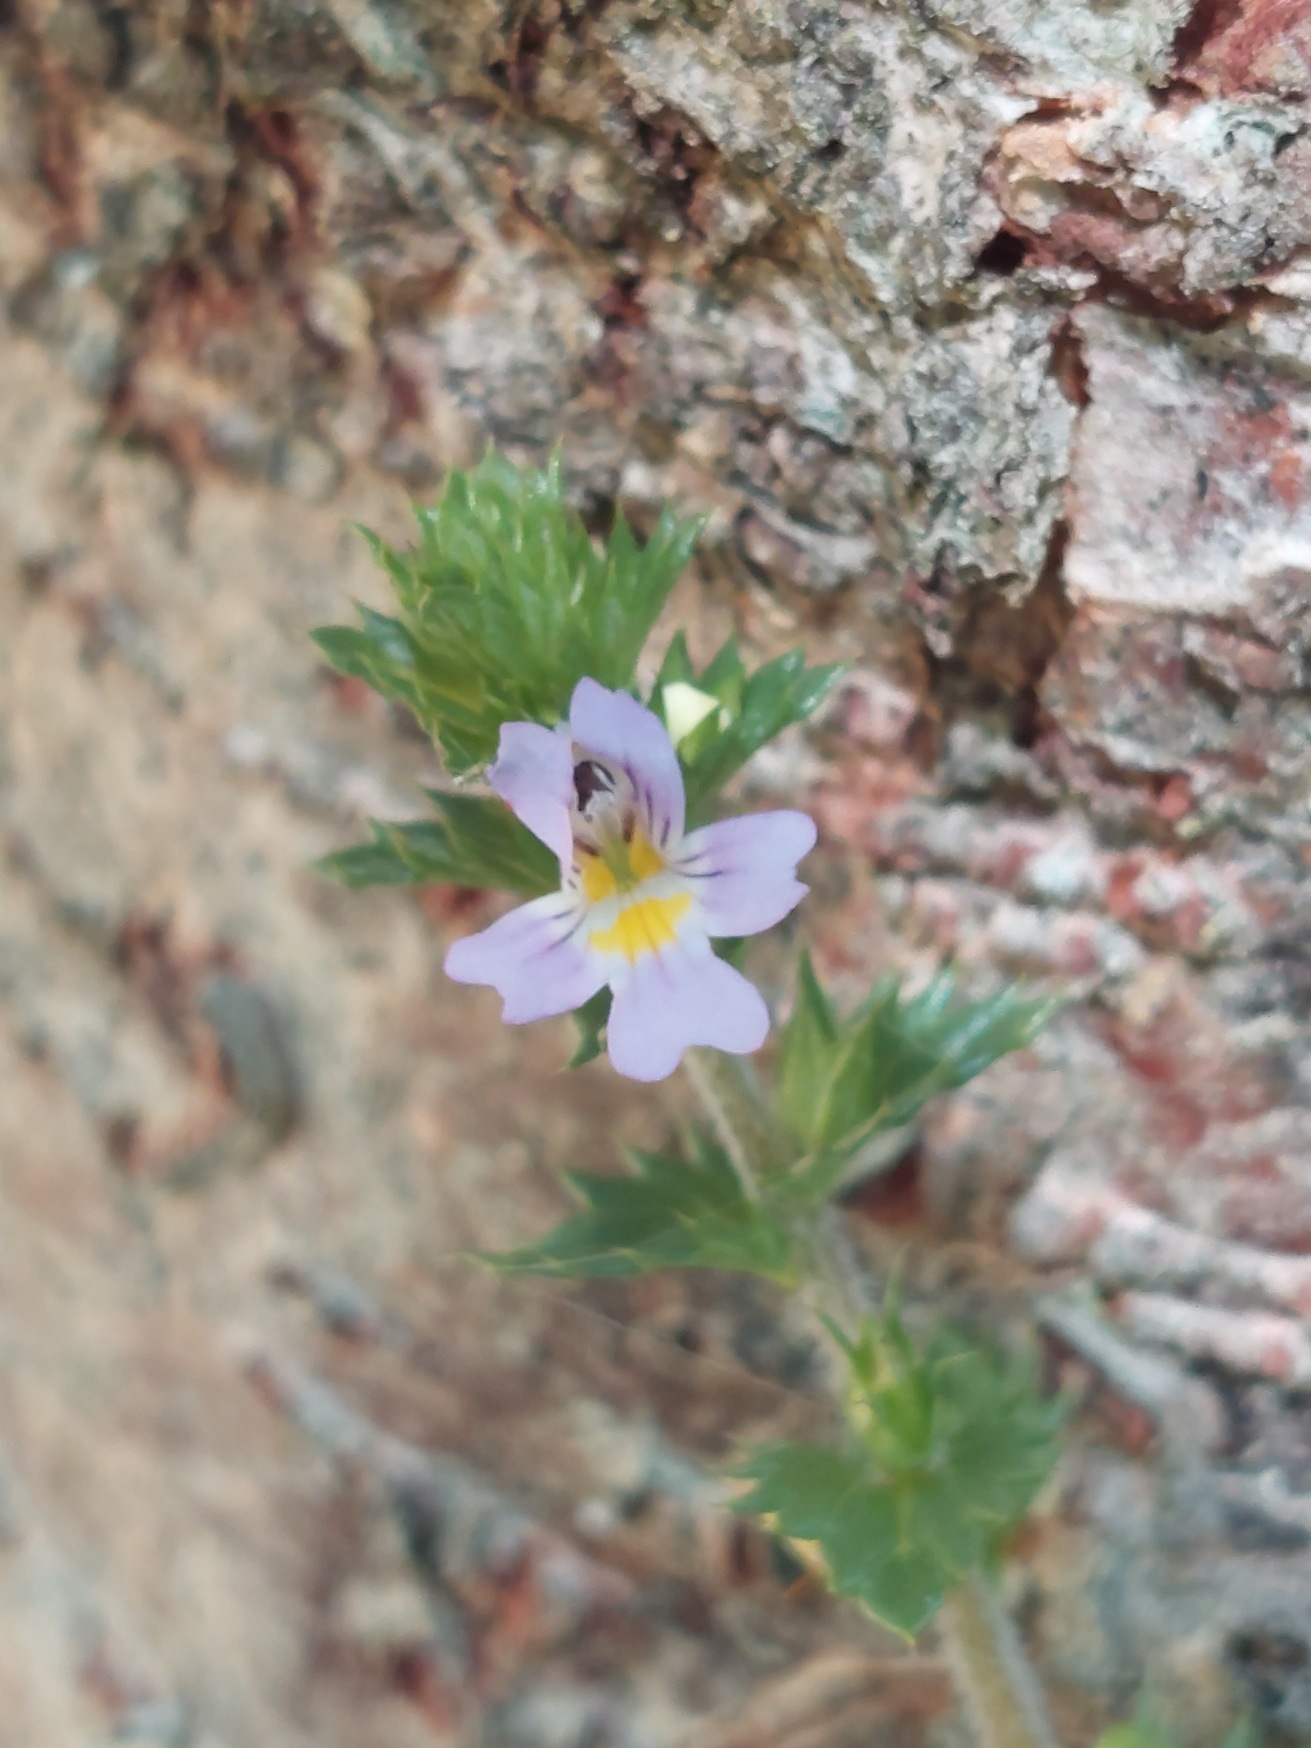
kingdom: Plantae
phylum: Tracheophyta
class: Magnoliopsida
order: Lamiales
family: Orobanchaceae
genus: Euphrasia
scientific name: Euphrasia stricta
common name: Spids øjentrøst
